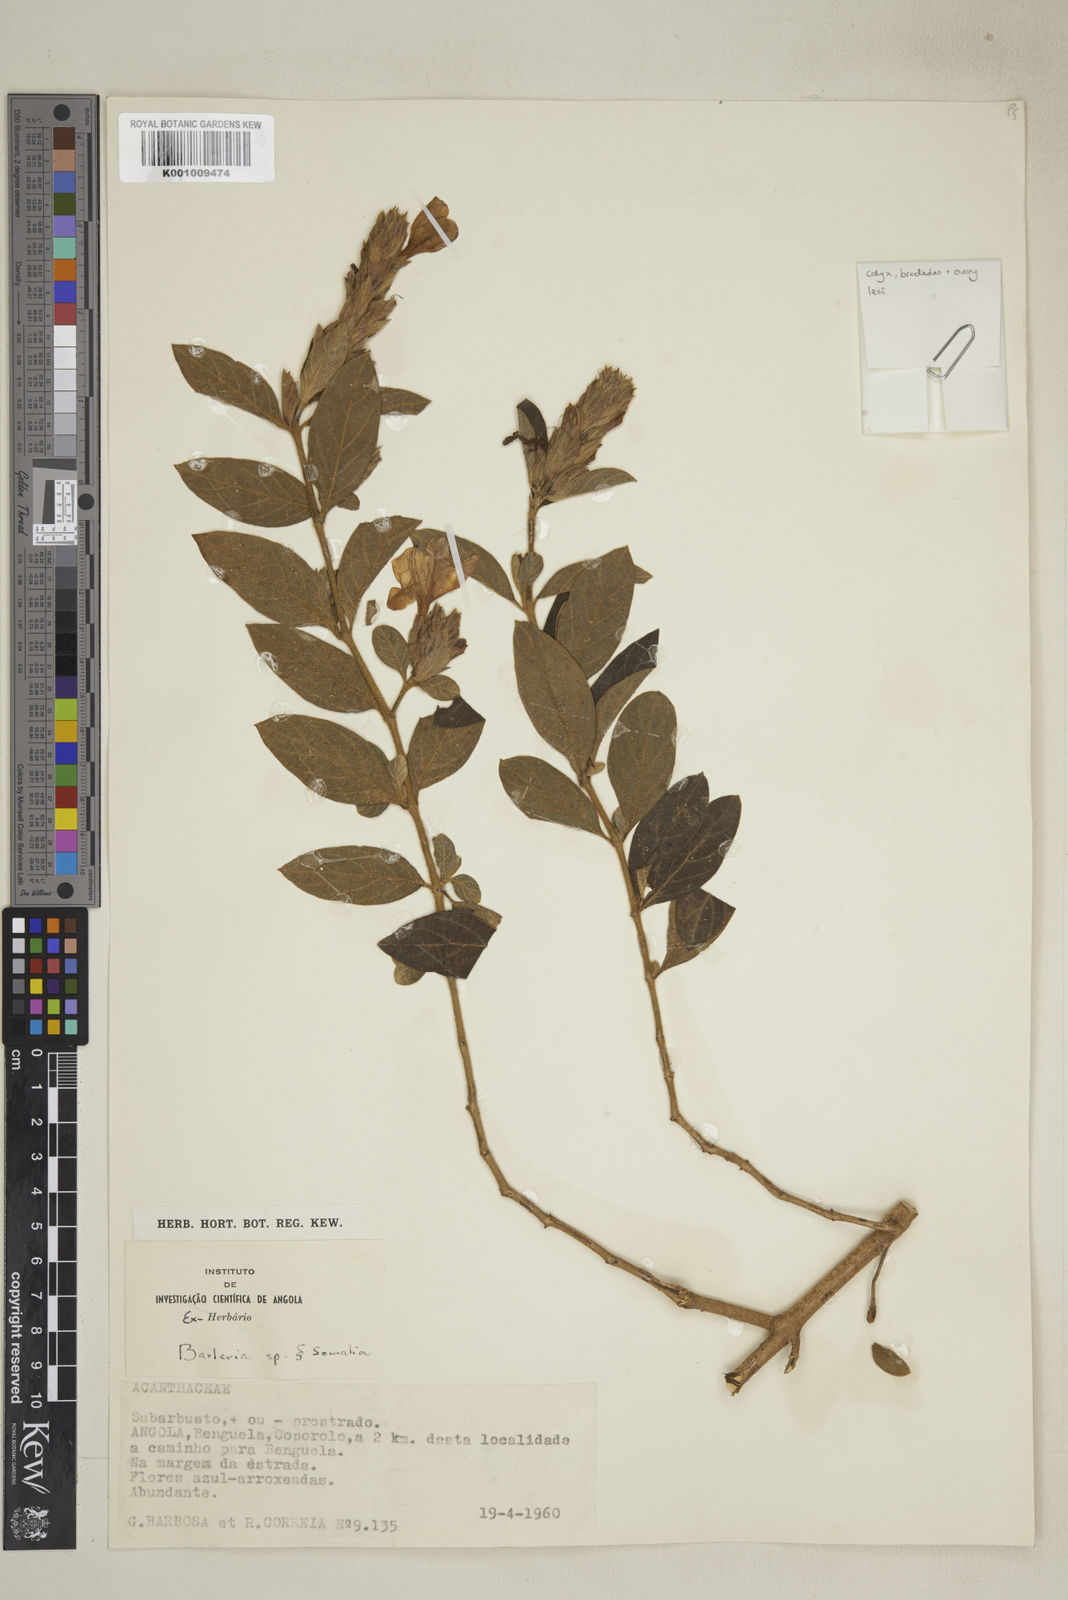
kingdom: Plantae
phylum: Tracheophyta
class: Magnoliopsida
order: Lamiales
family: Acanthaceae
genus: Barleria
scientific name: Barleria taitensis
